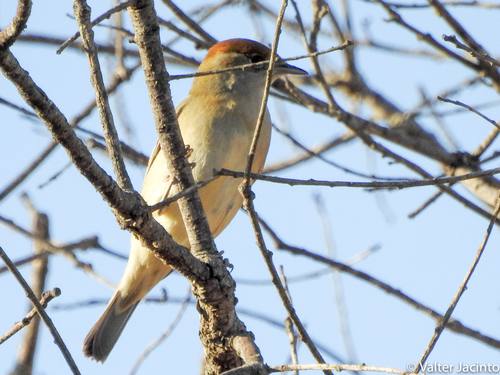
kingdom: Animalia
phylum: Chordata
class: Aves
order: Passeriformes
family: Sylviidae
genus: Sylvia
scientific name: Sylvia atricapilla
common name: Eurasian blackcap
